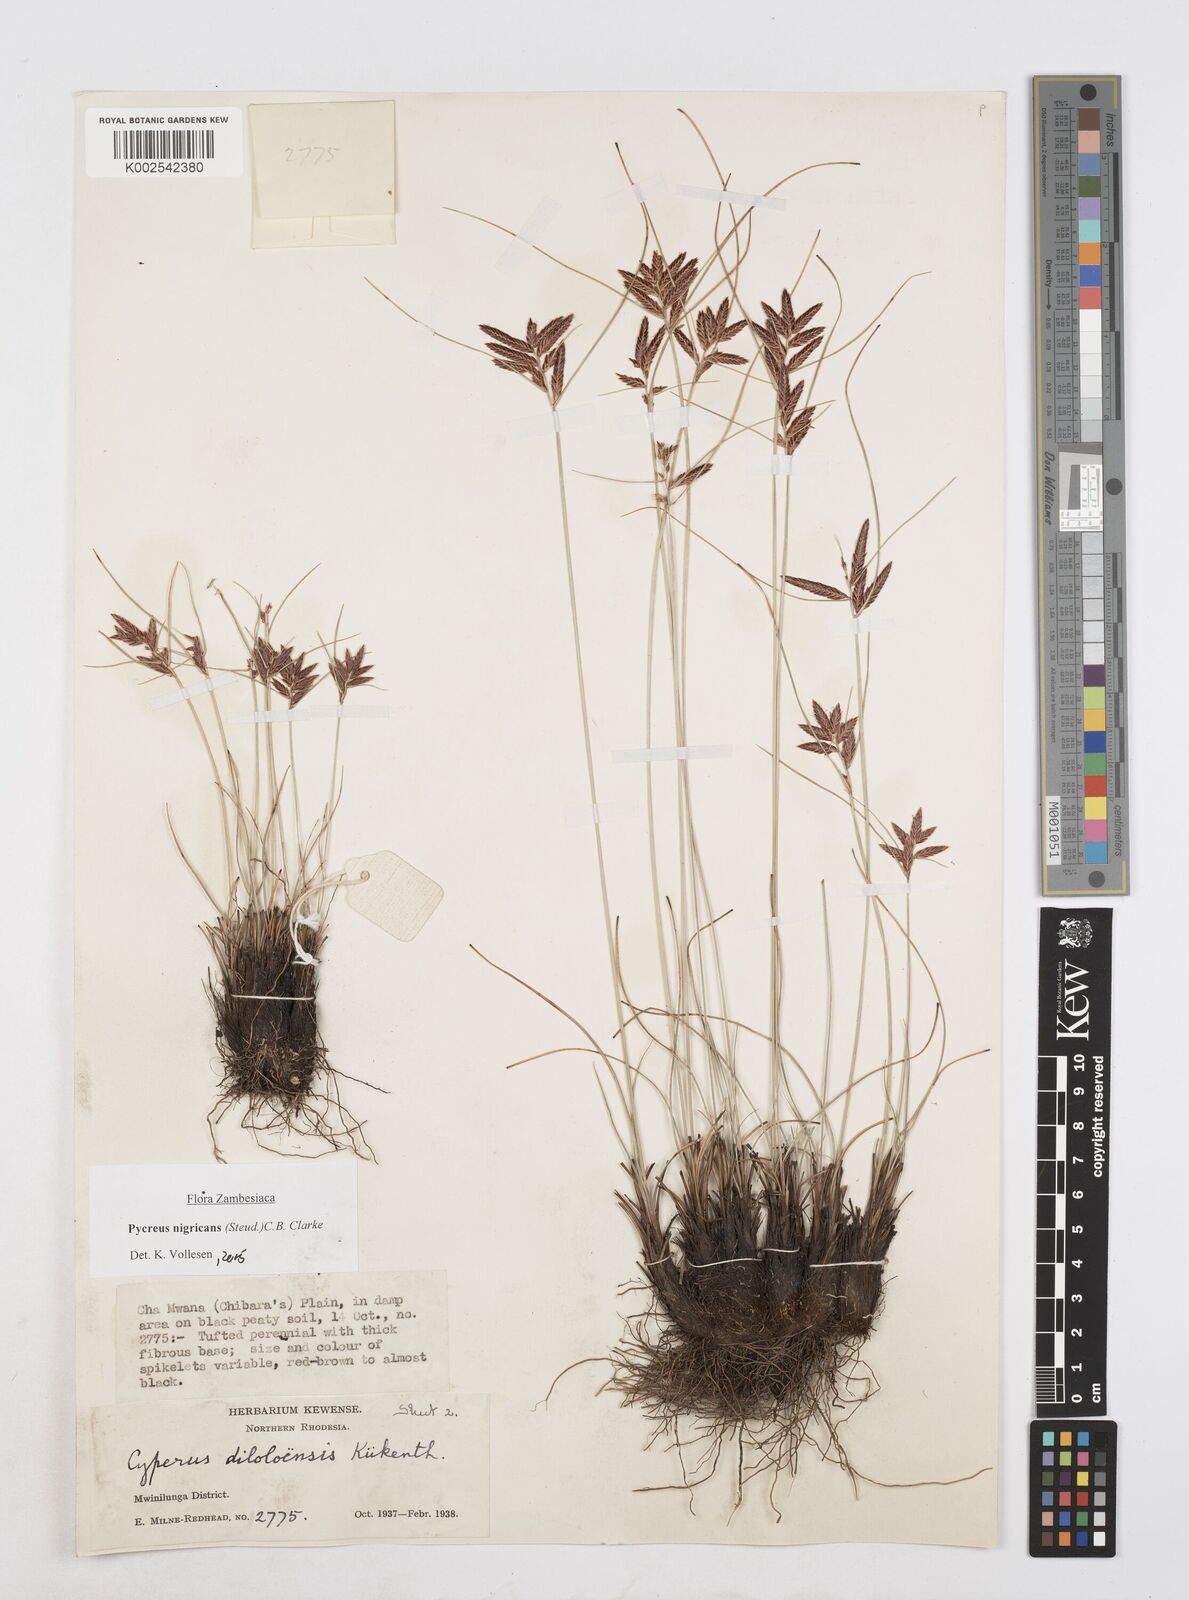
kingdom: Plantae
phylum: Tracheophyta
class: Liliopsida
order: Poales
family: Cyperaceae
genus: Cyperus
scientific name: Cyperus nigricans
